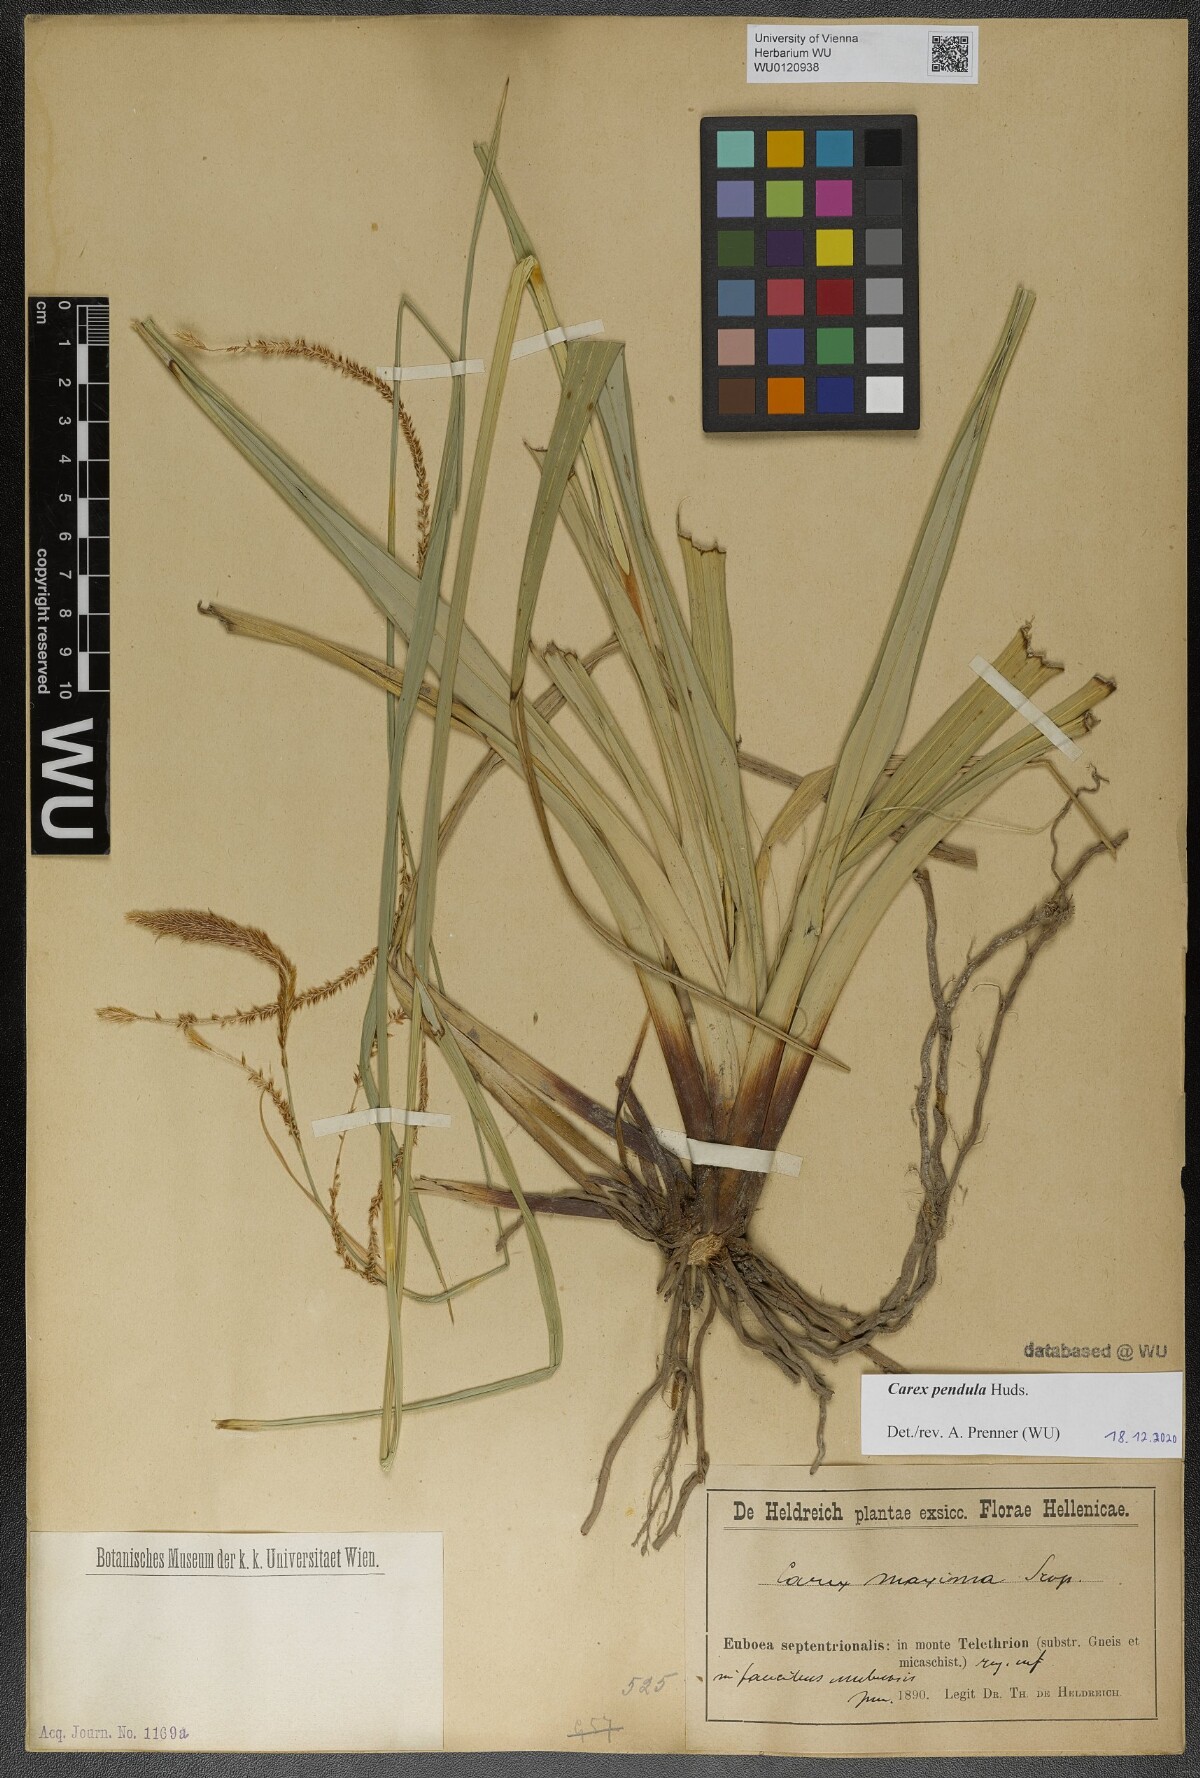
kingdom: Plantae
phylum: Tracheophyta
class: Liliopsida
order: Poales
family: Cyperaceae
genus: Carex
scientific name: Carex pendula
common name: Pendulous sedge
